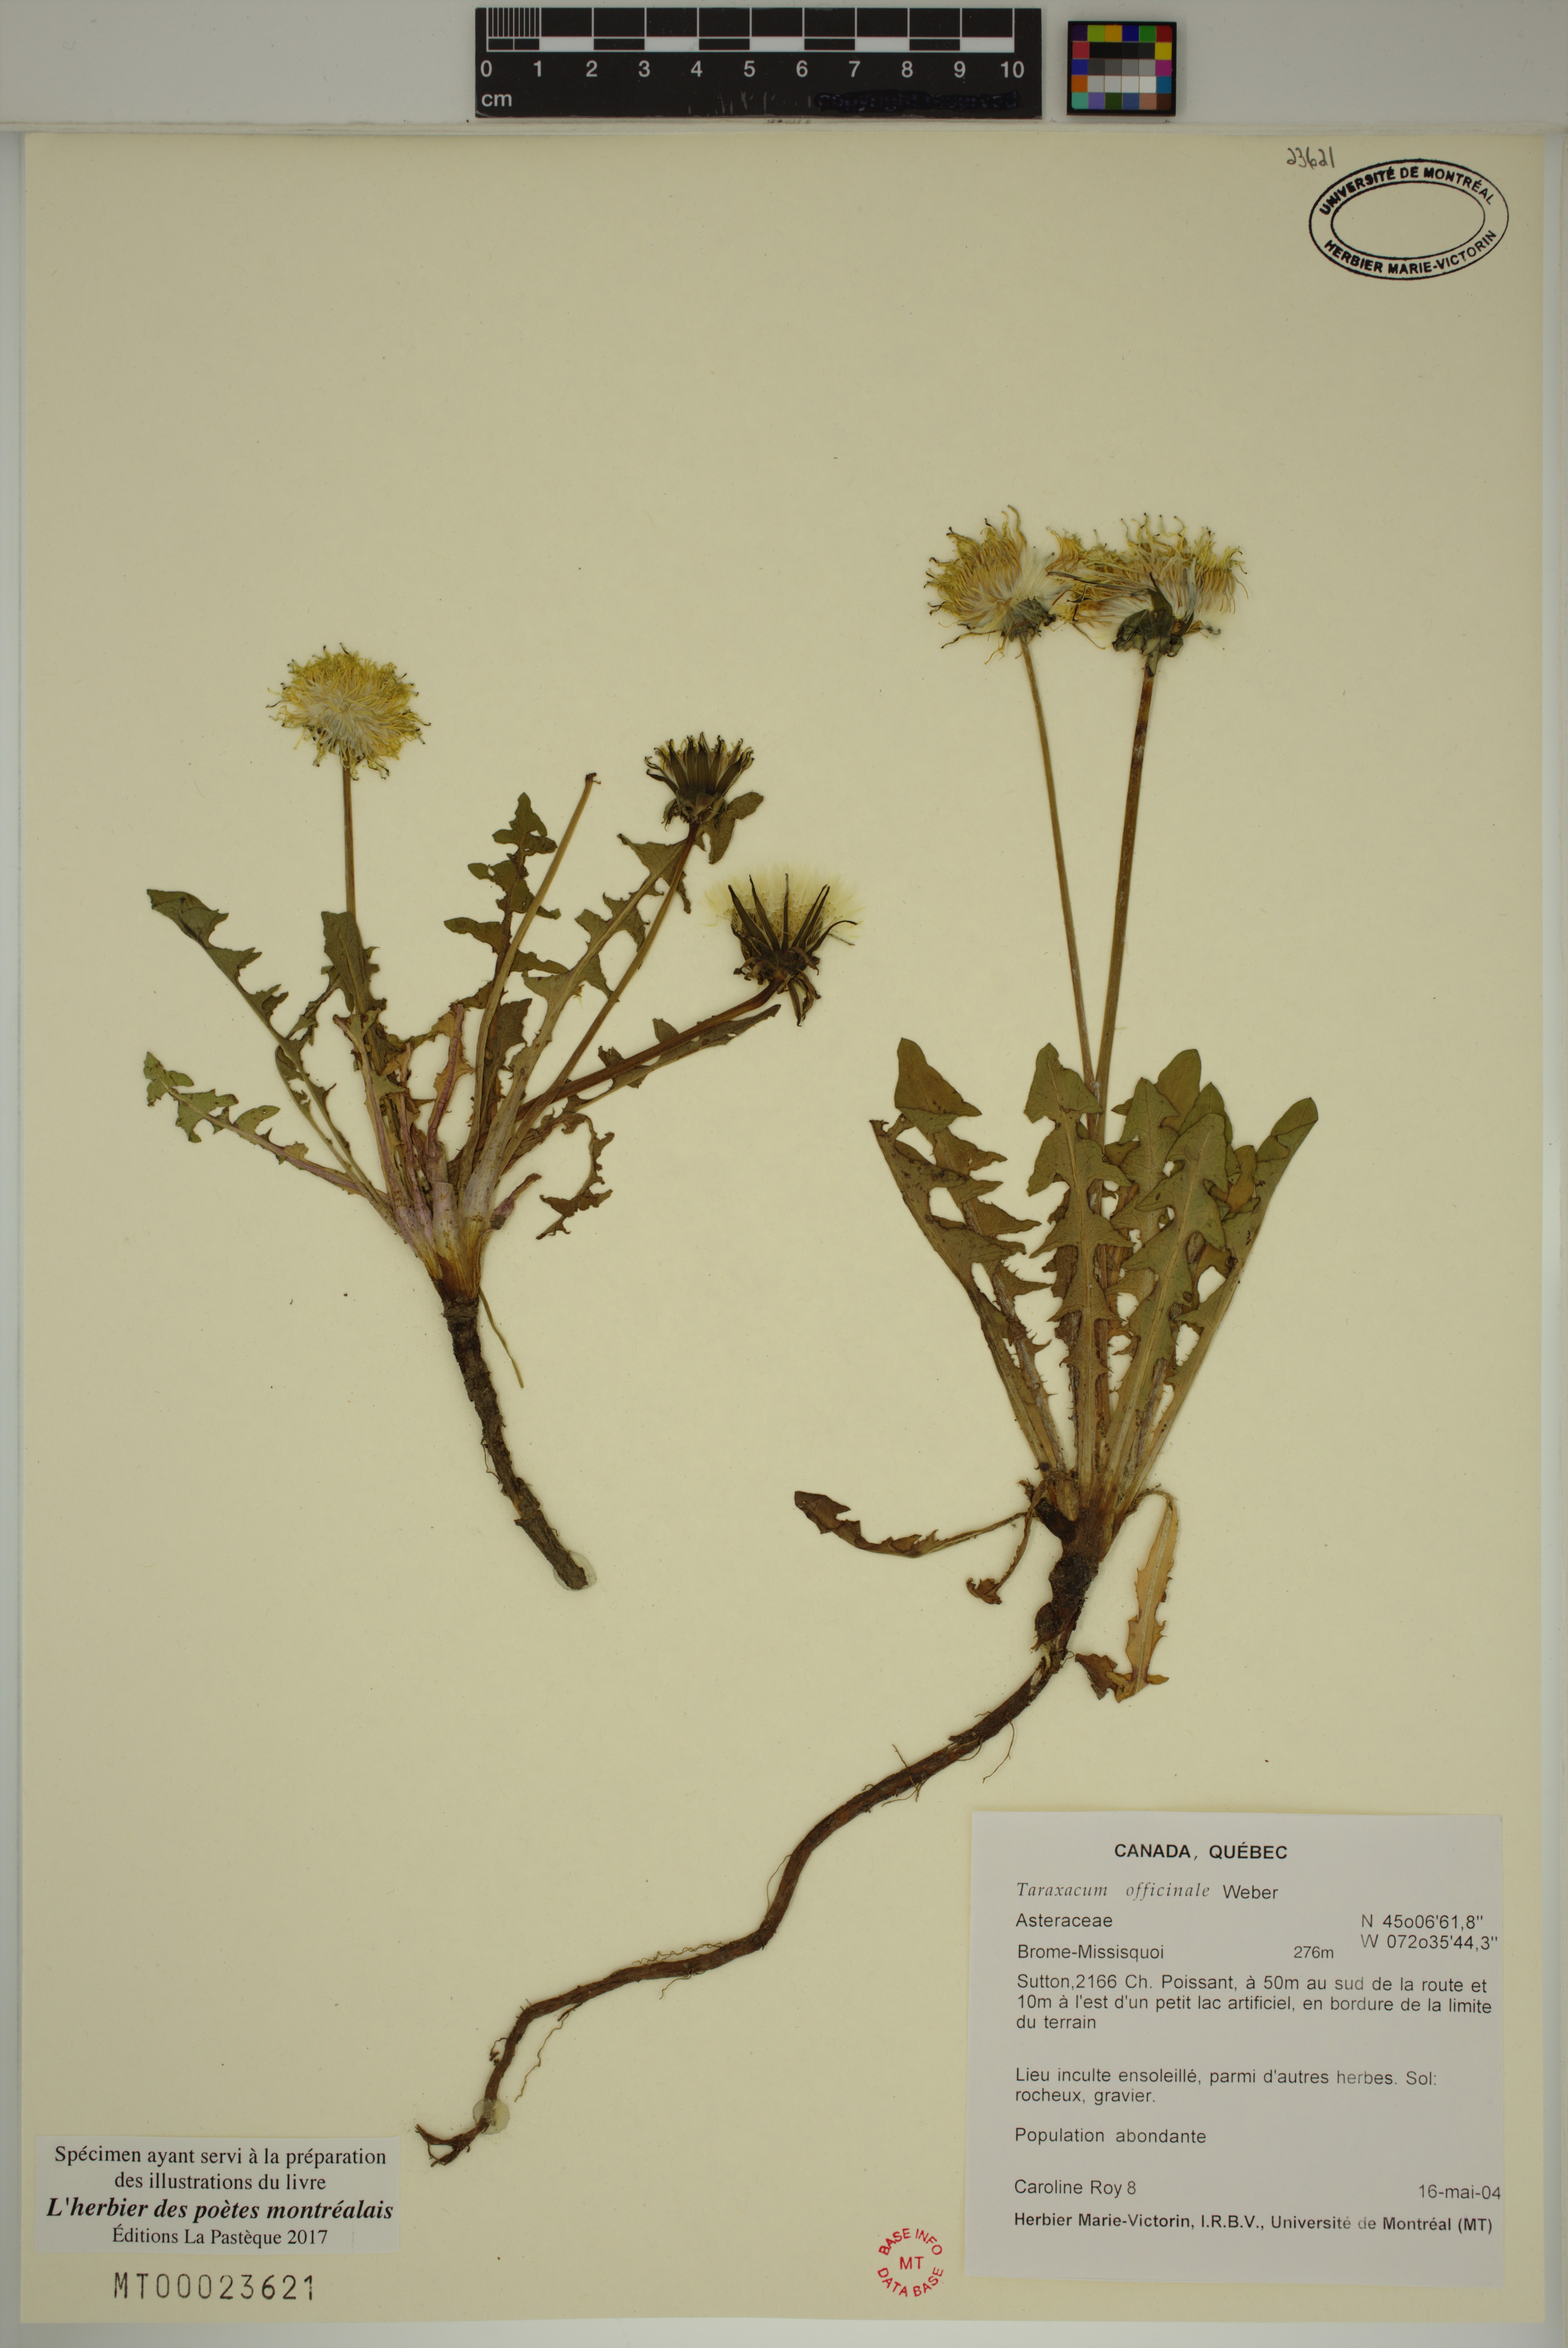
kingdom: Plantae
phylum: Tracheophyta
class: Magnoliopsida
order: Asterales
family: Asteraceae
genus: Taraxacum
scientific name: Taraxacum officinale
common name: Common dandelion
